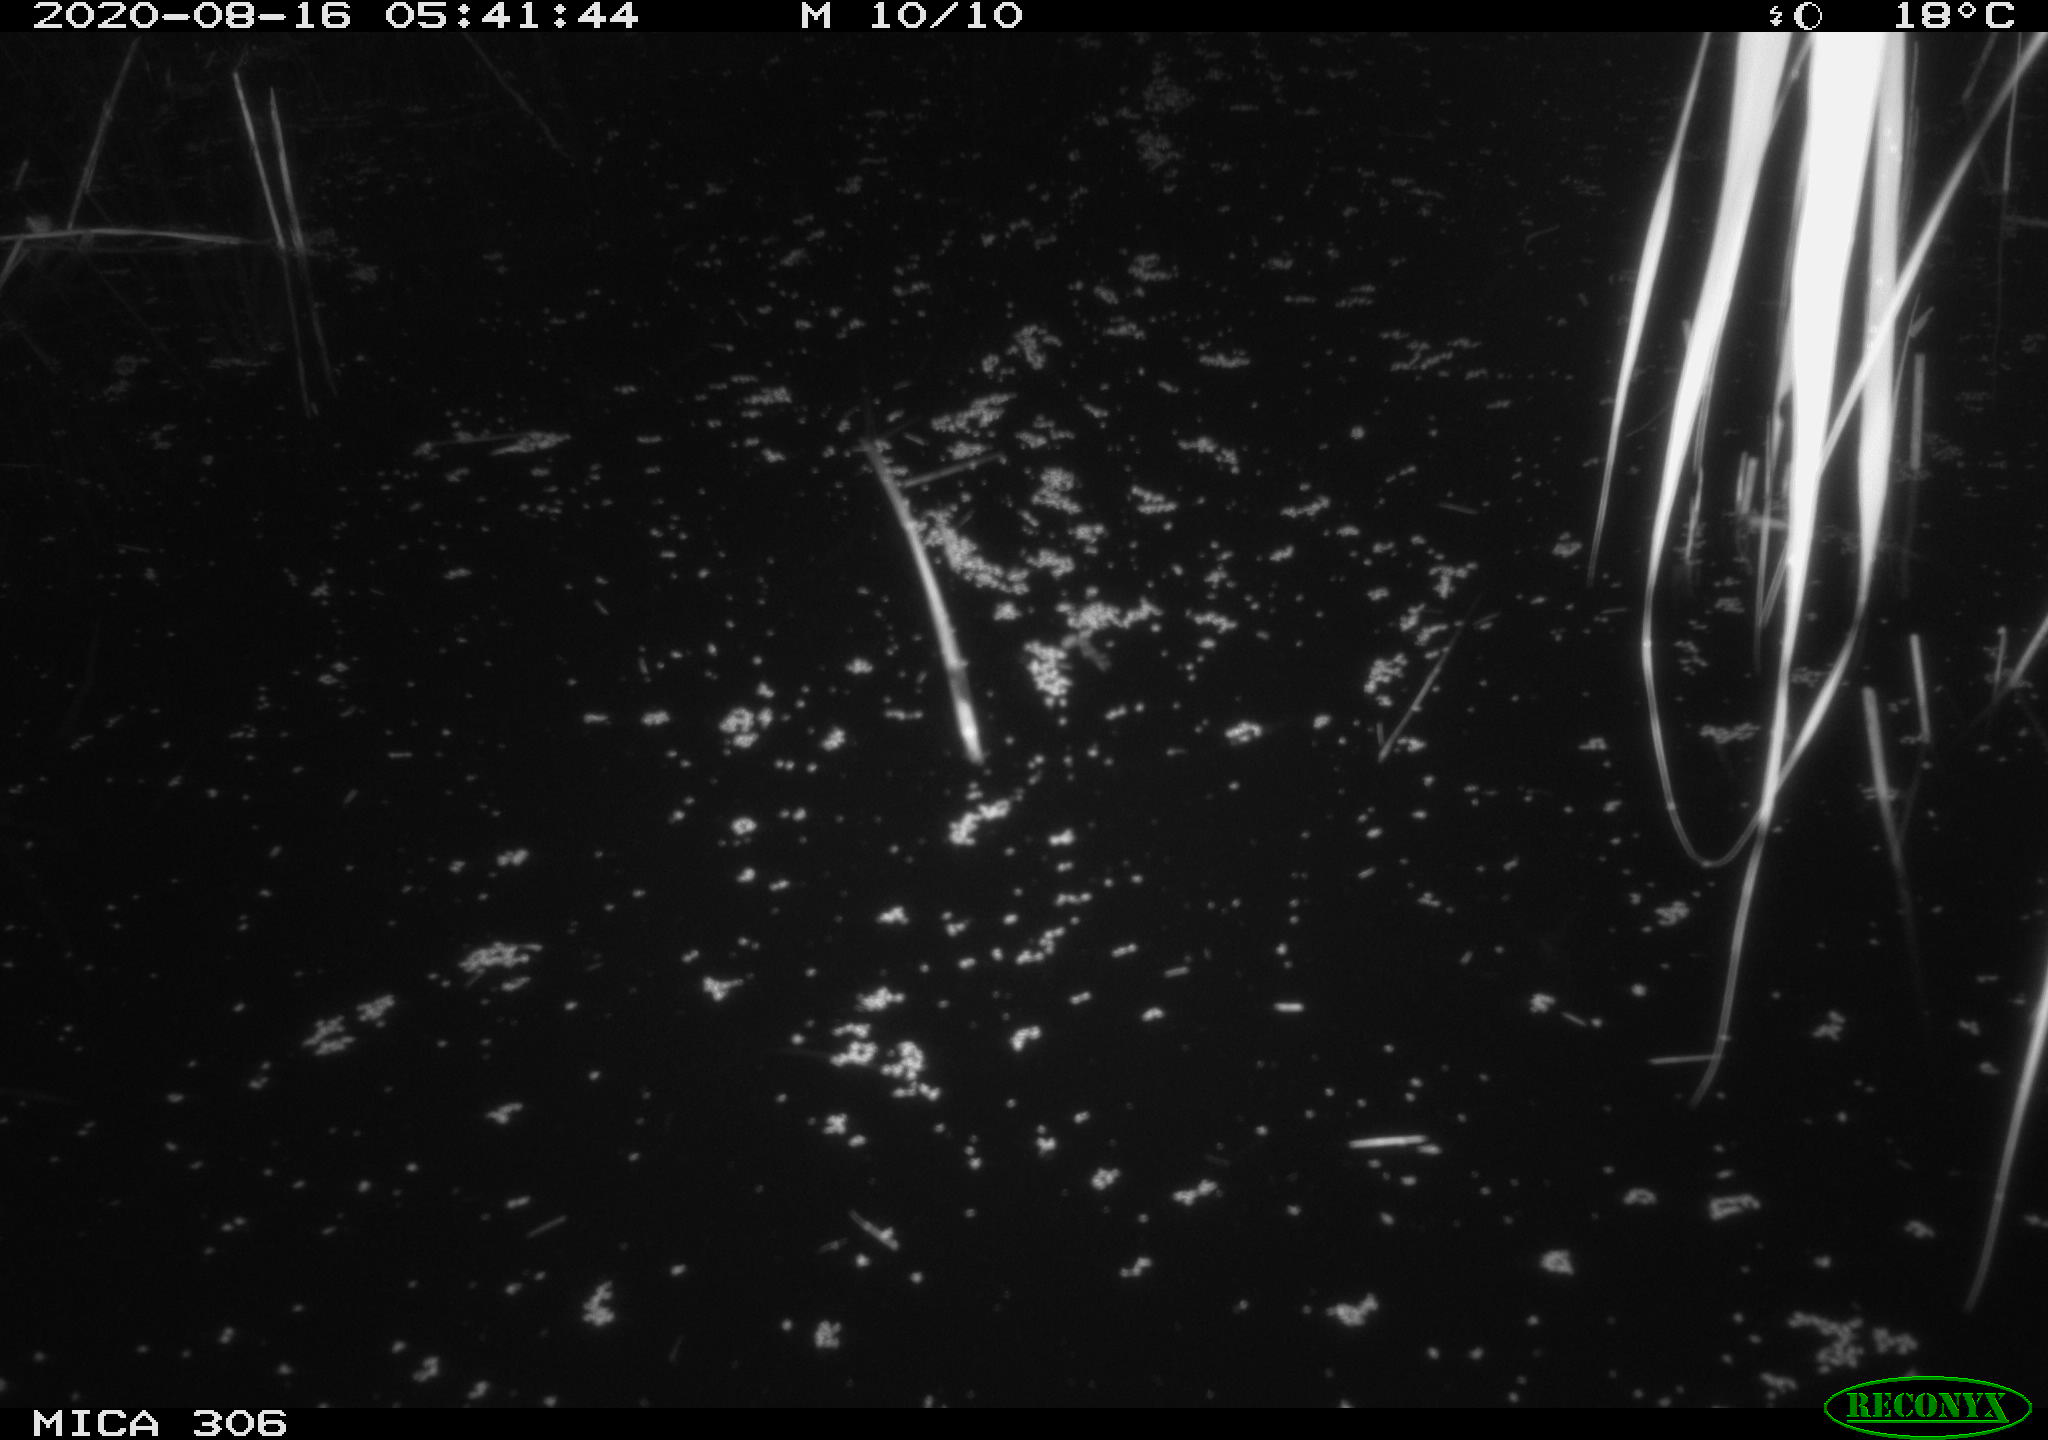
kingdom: Animalia
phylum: Chordata
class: Mammalia
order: Rodentia
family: Muridae
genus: Rattus
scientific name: Rattus norvegicus
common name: Brown rat
